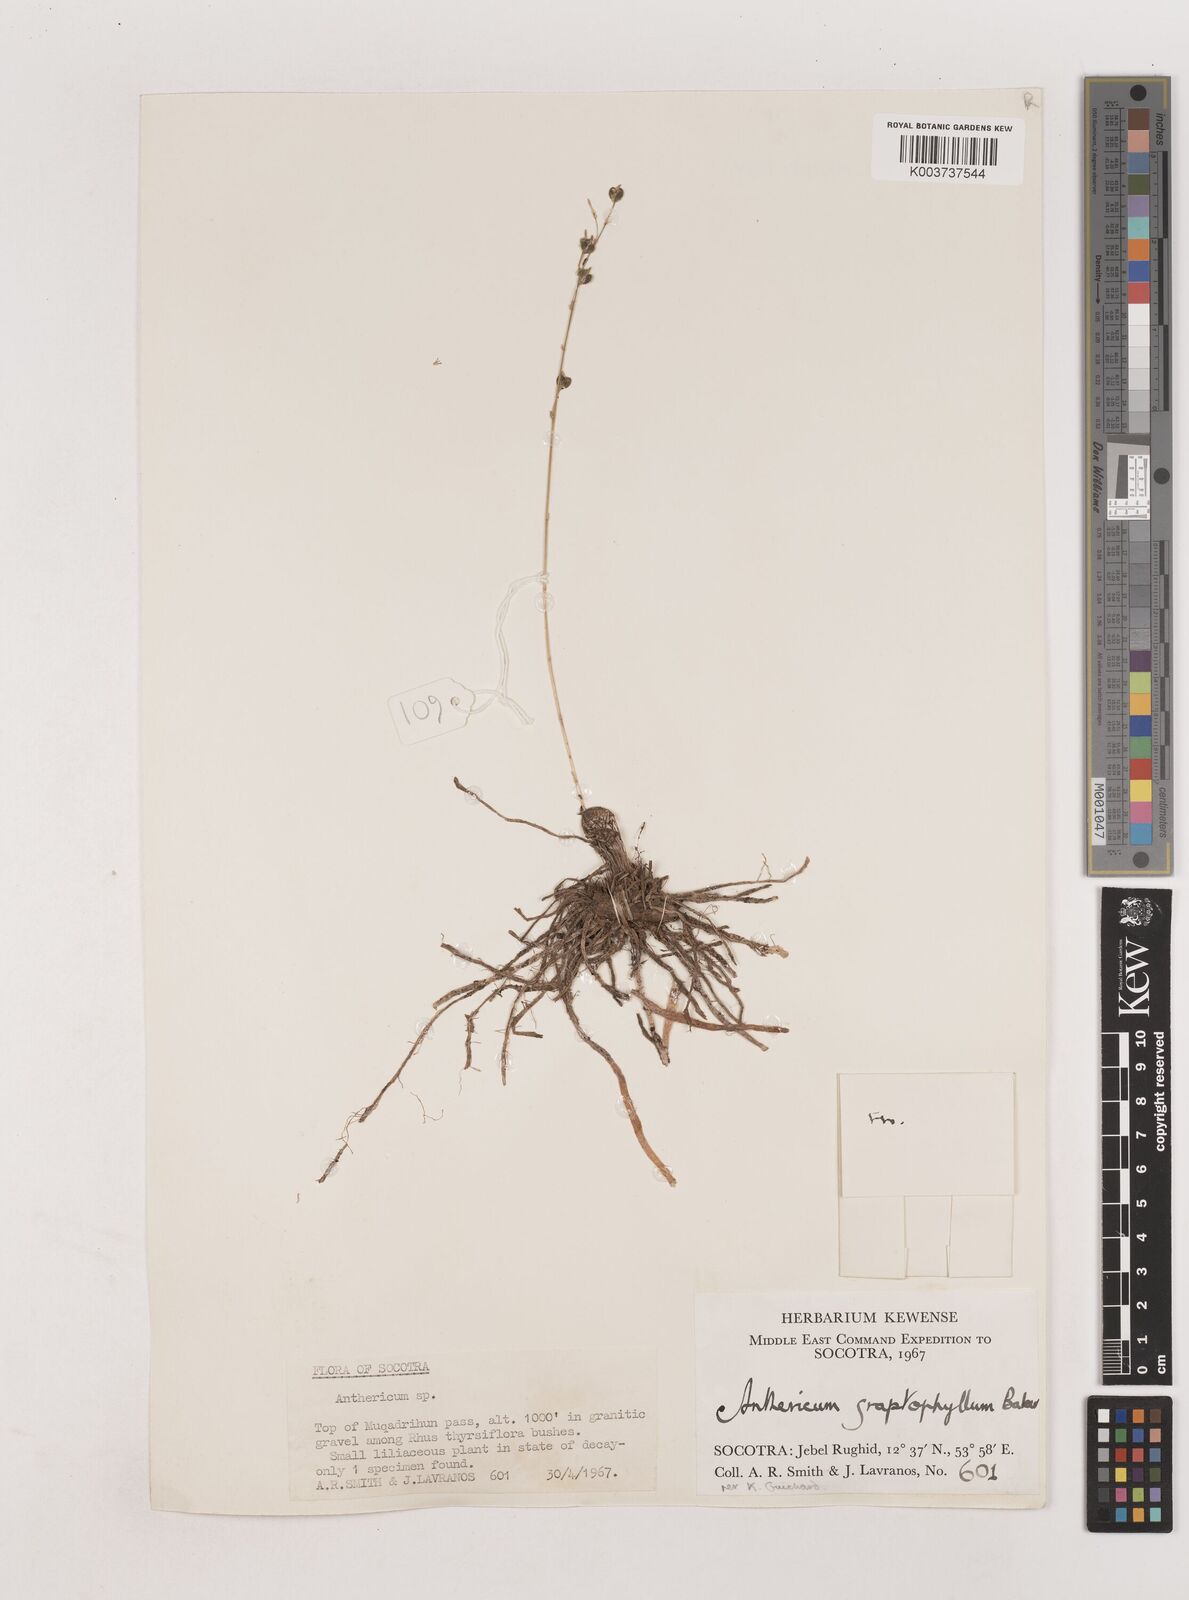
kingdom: Plantae
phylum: Tracheophyta
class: Liliopsida
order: Asparagales
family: Asparagaceae
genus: Chlorophytum
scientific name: Chlorophytum graptophyllum
